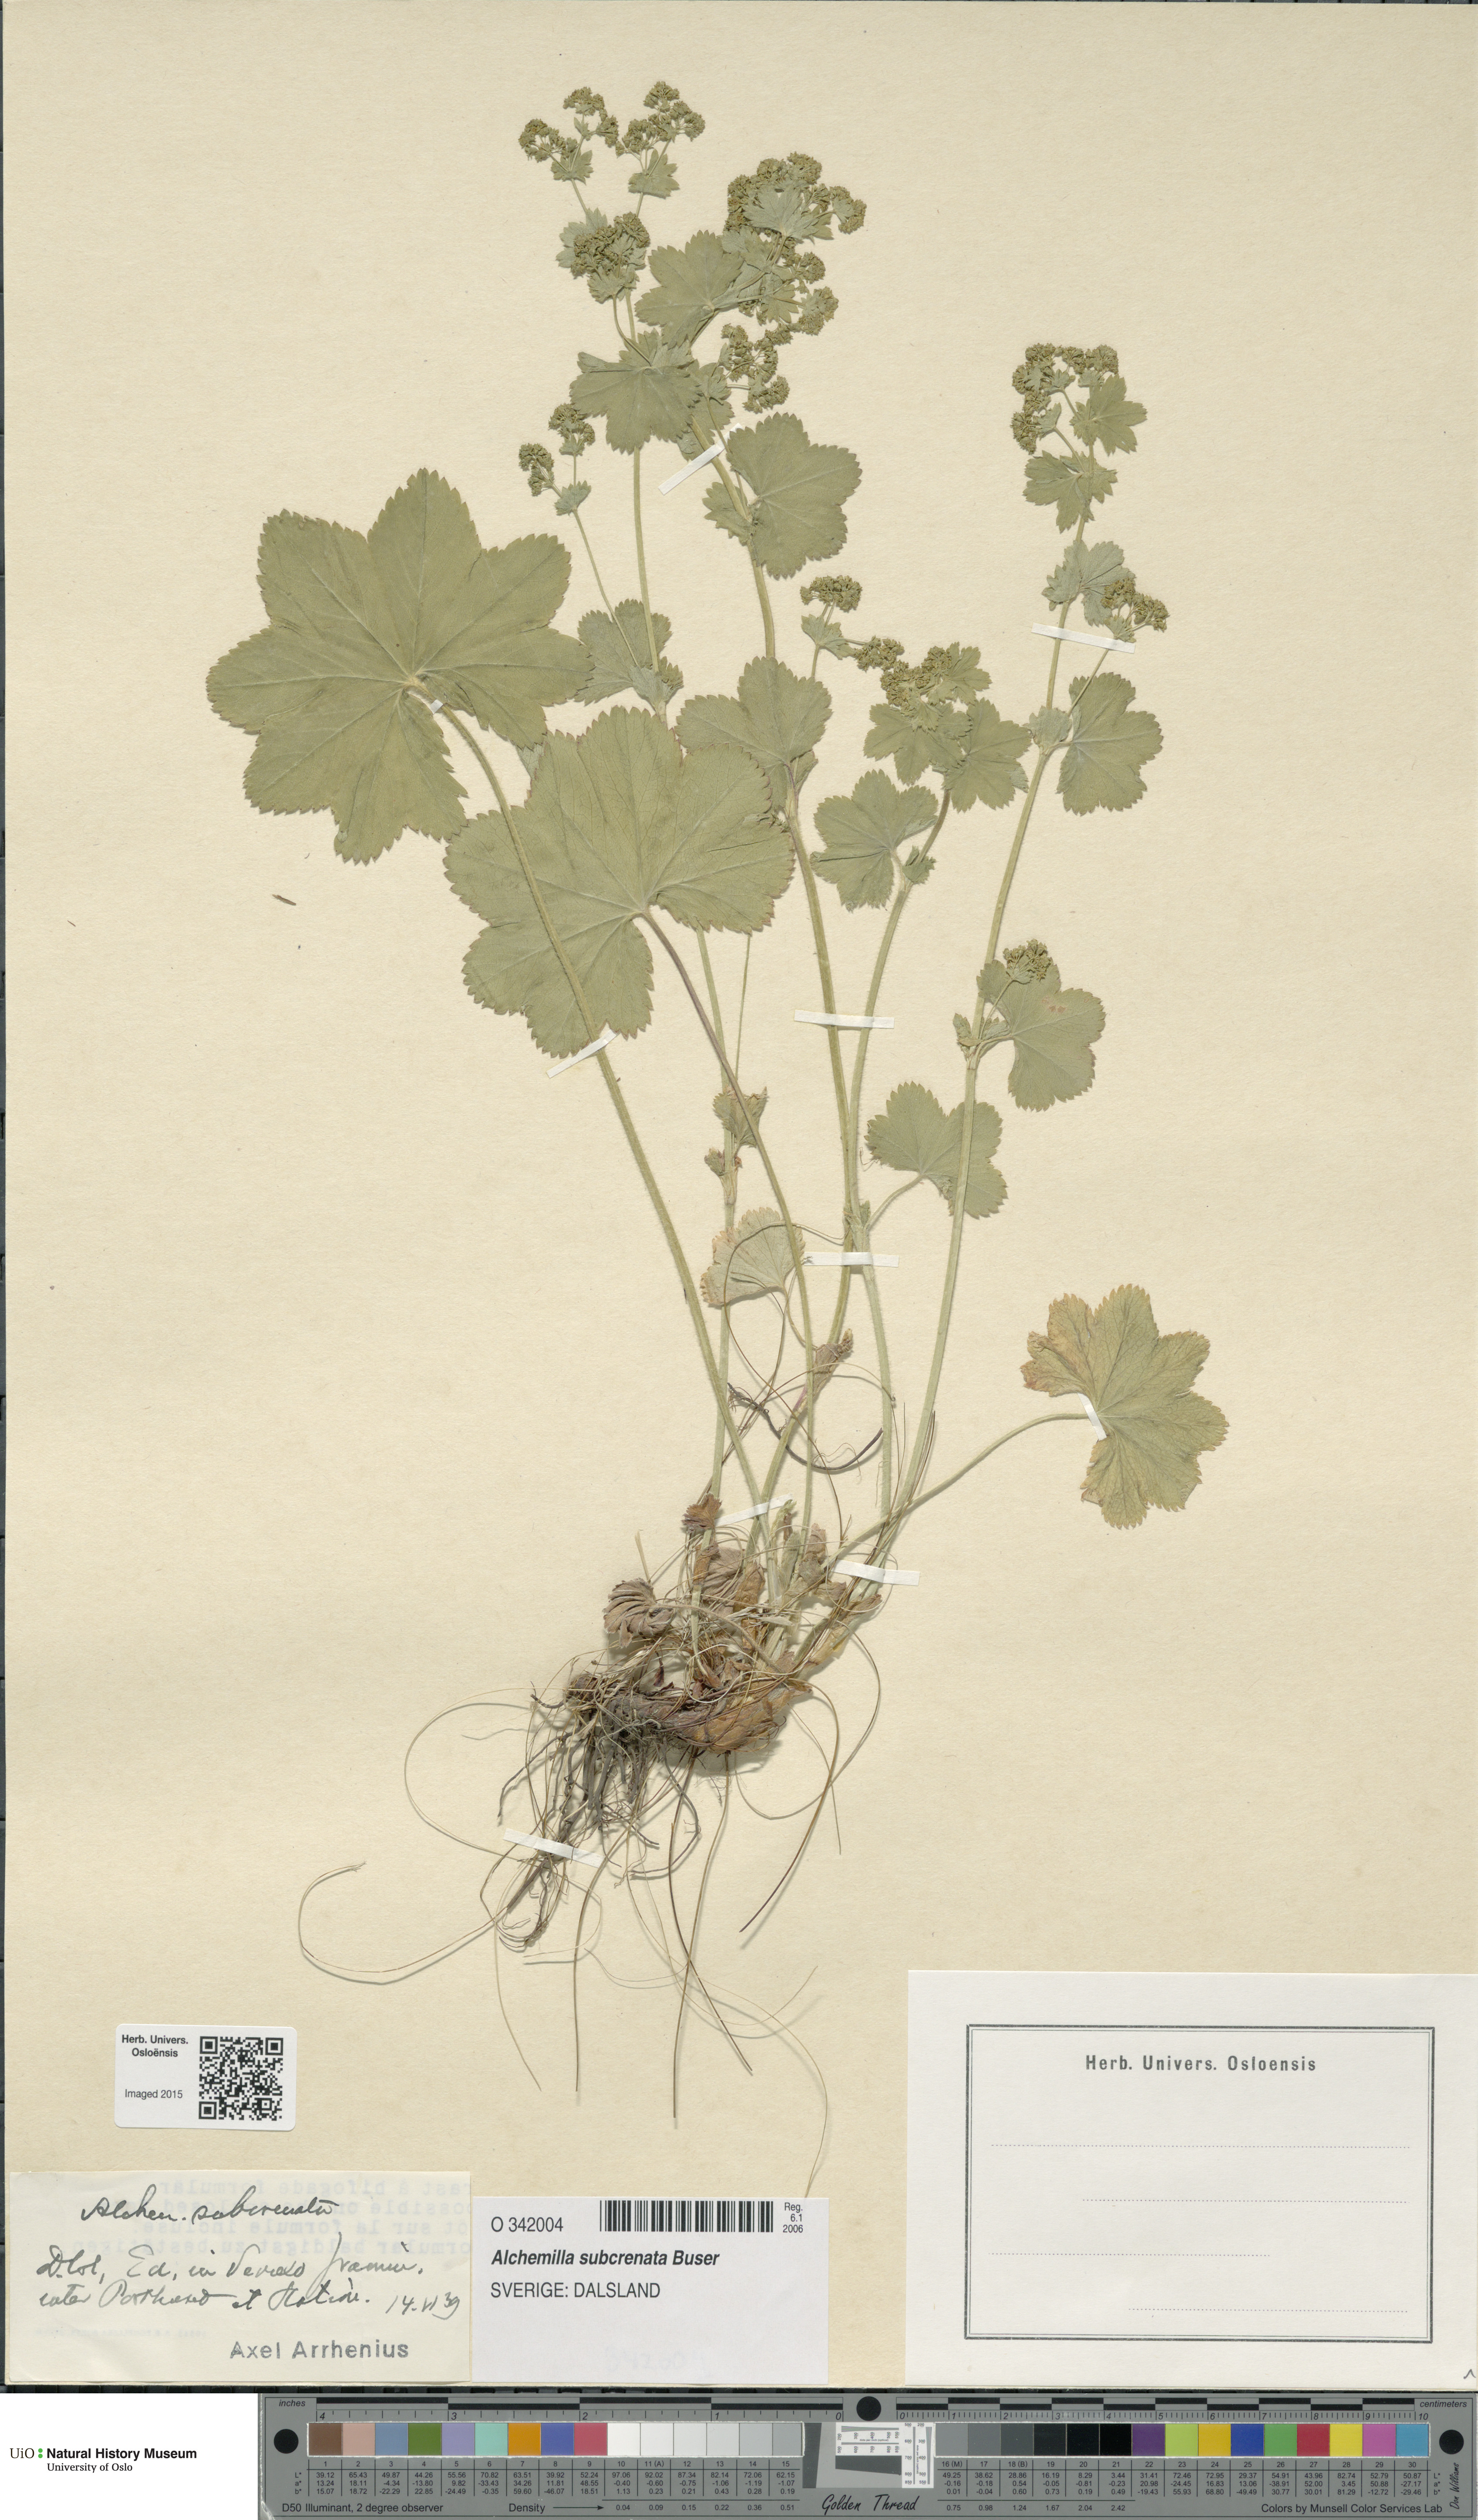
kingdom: Plantae
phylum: Tracheophyta
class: Magnoliopsida
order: Rosales
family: Rosaceae
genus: Alchemilla
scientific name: Alchemilla subcrenata
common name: Broadtooth lady's mantle
